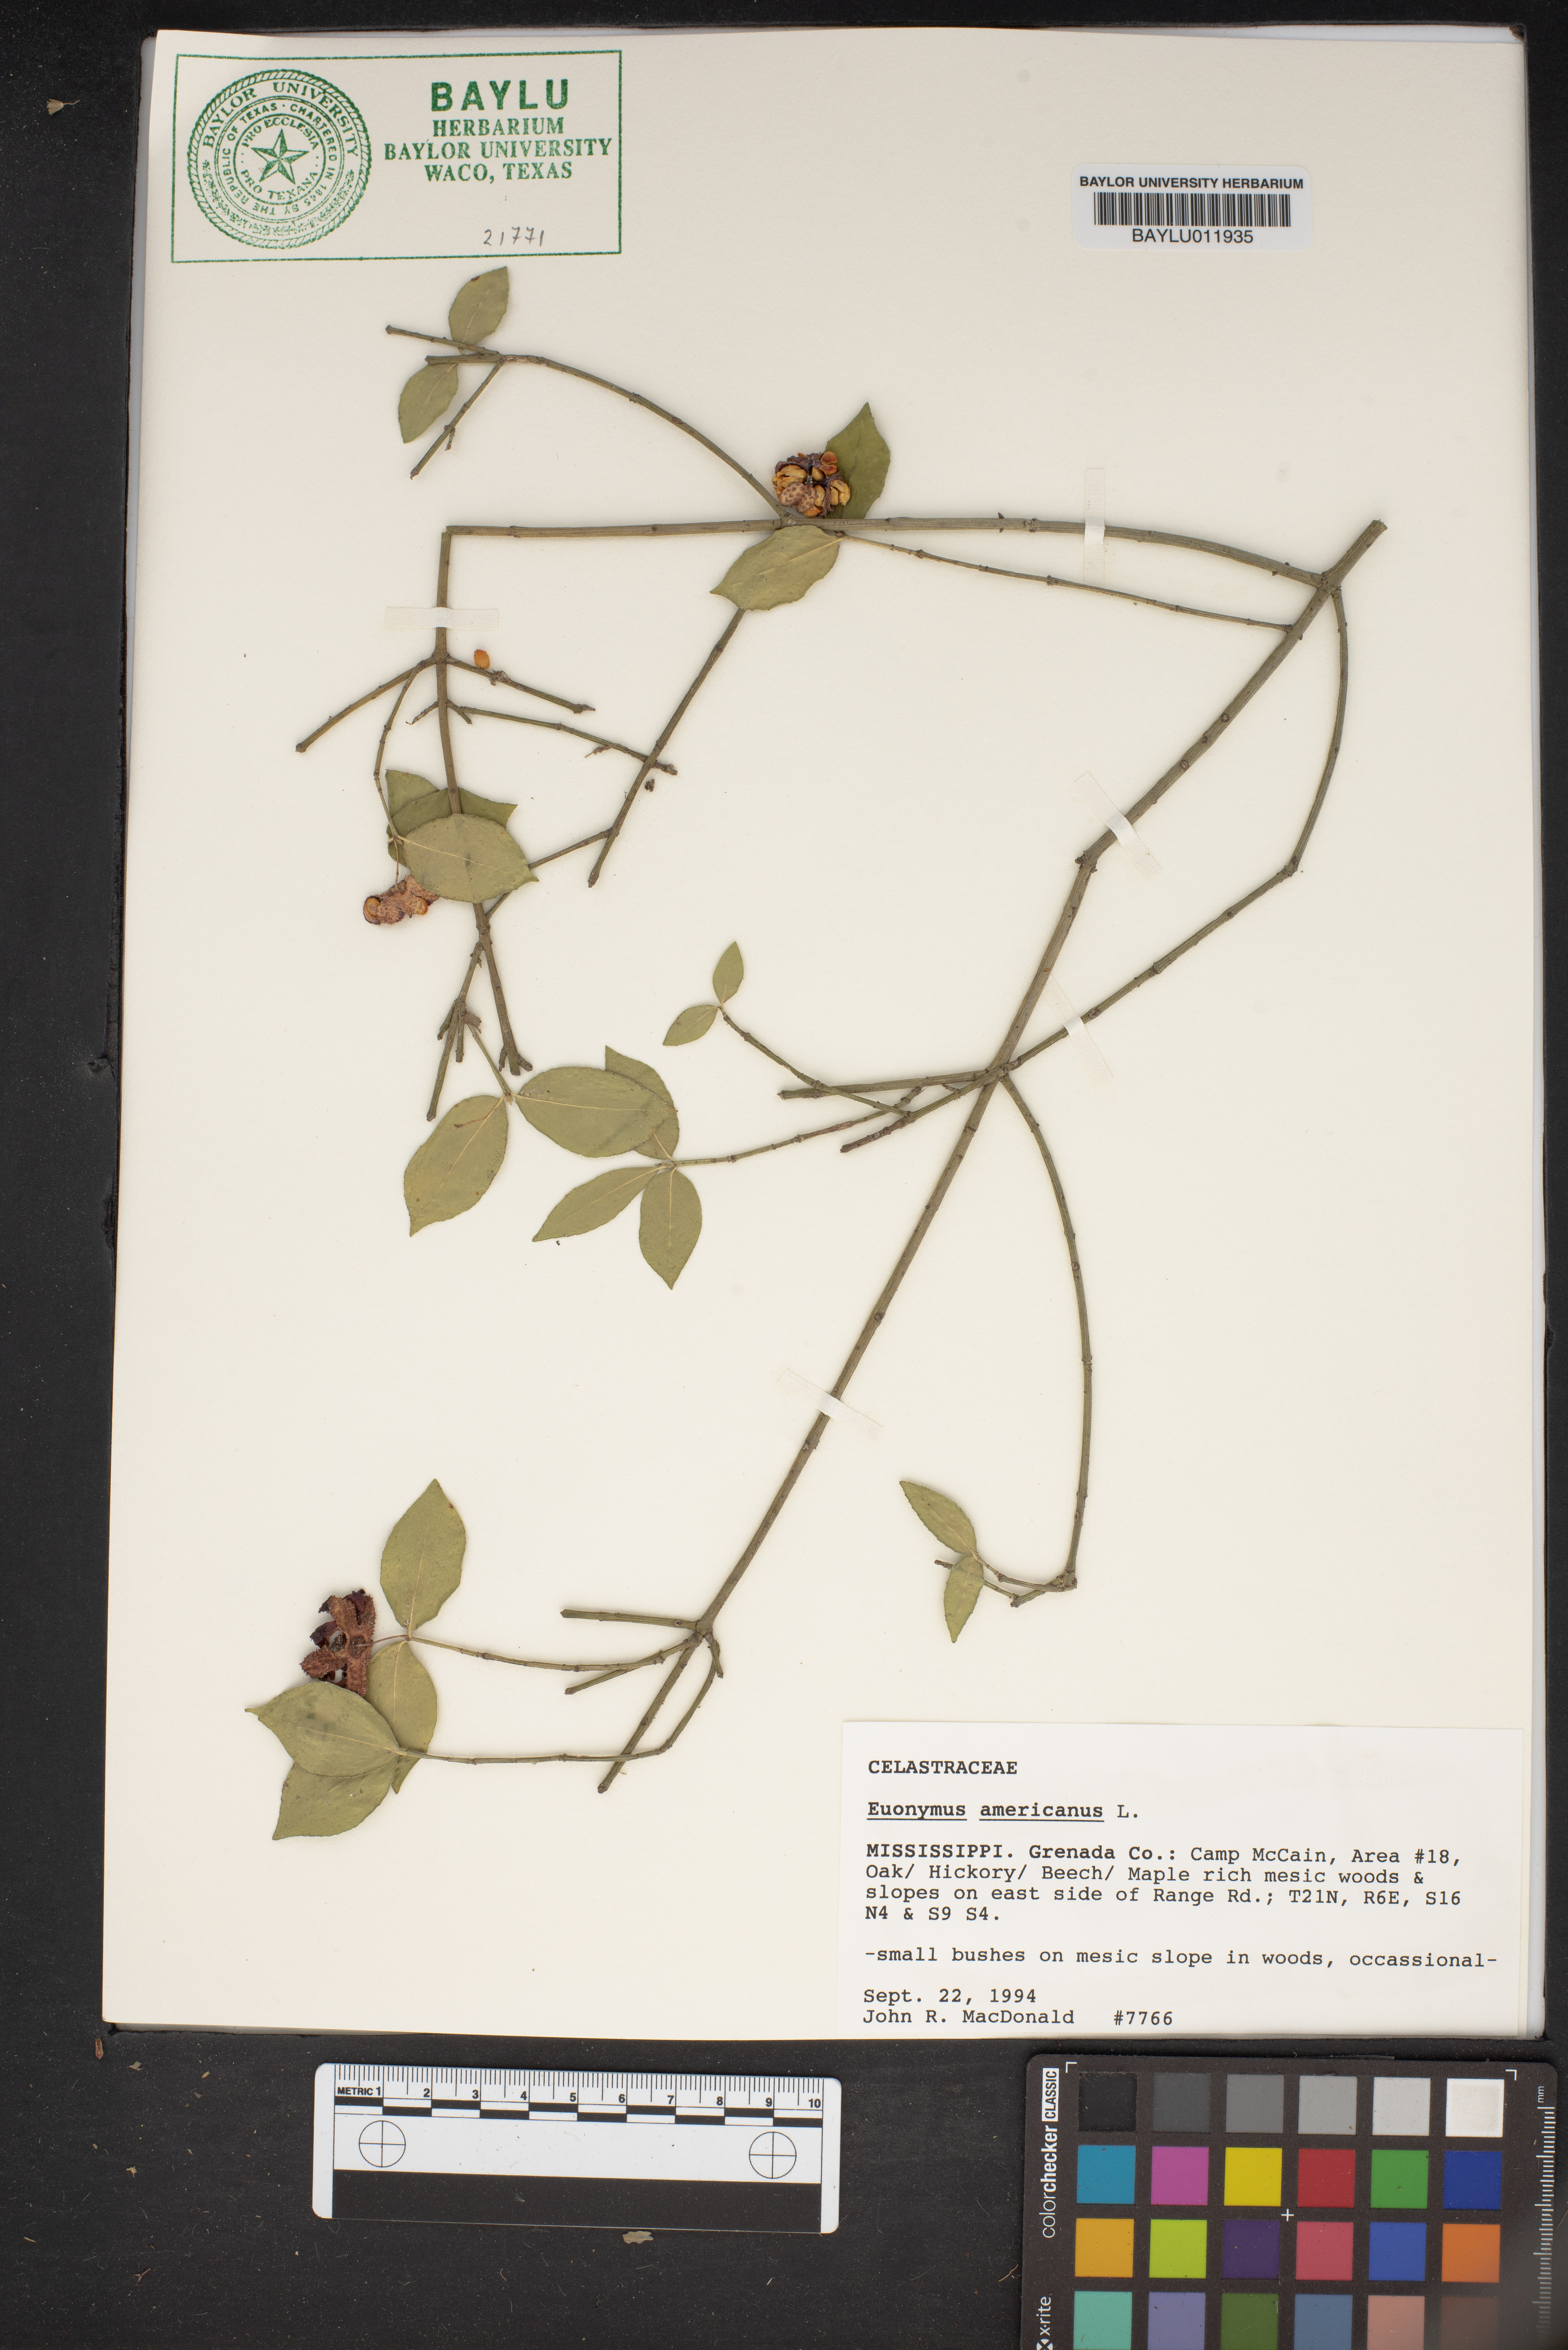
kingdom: Plantae
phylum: Tracheophyta
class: Magnoliopsida
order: Celastrales
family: Celastraceae
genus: Euonymus
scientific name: Euonymus americanus
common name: Bursting-heart
